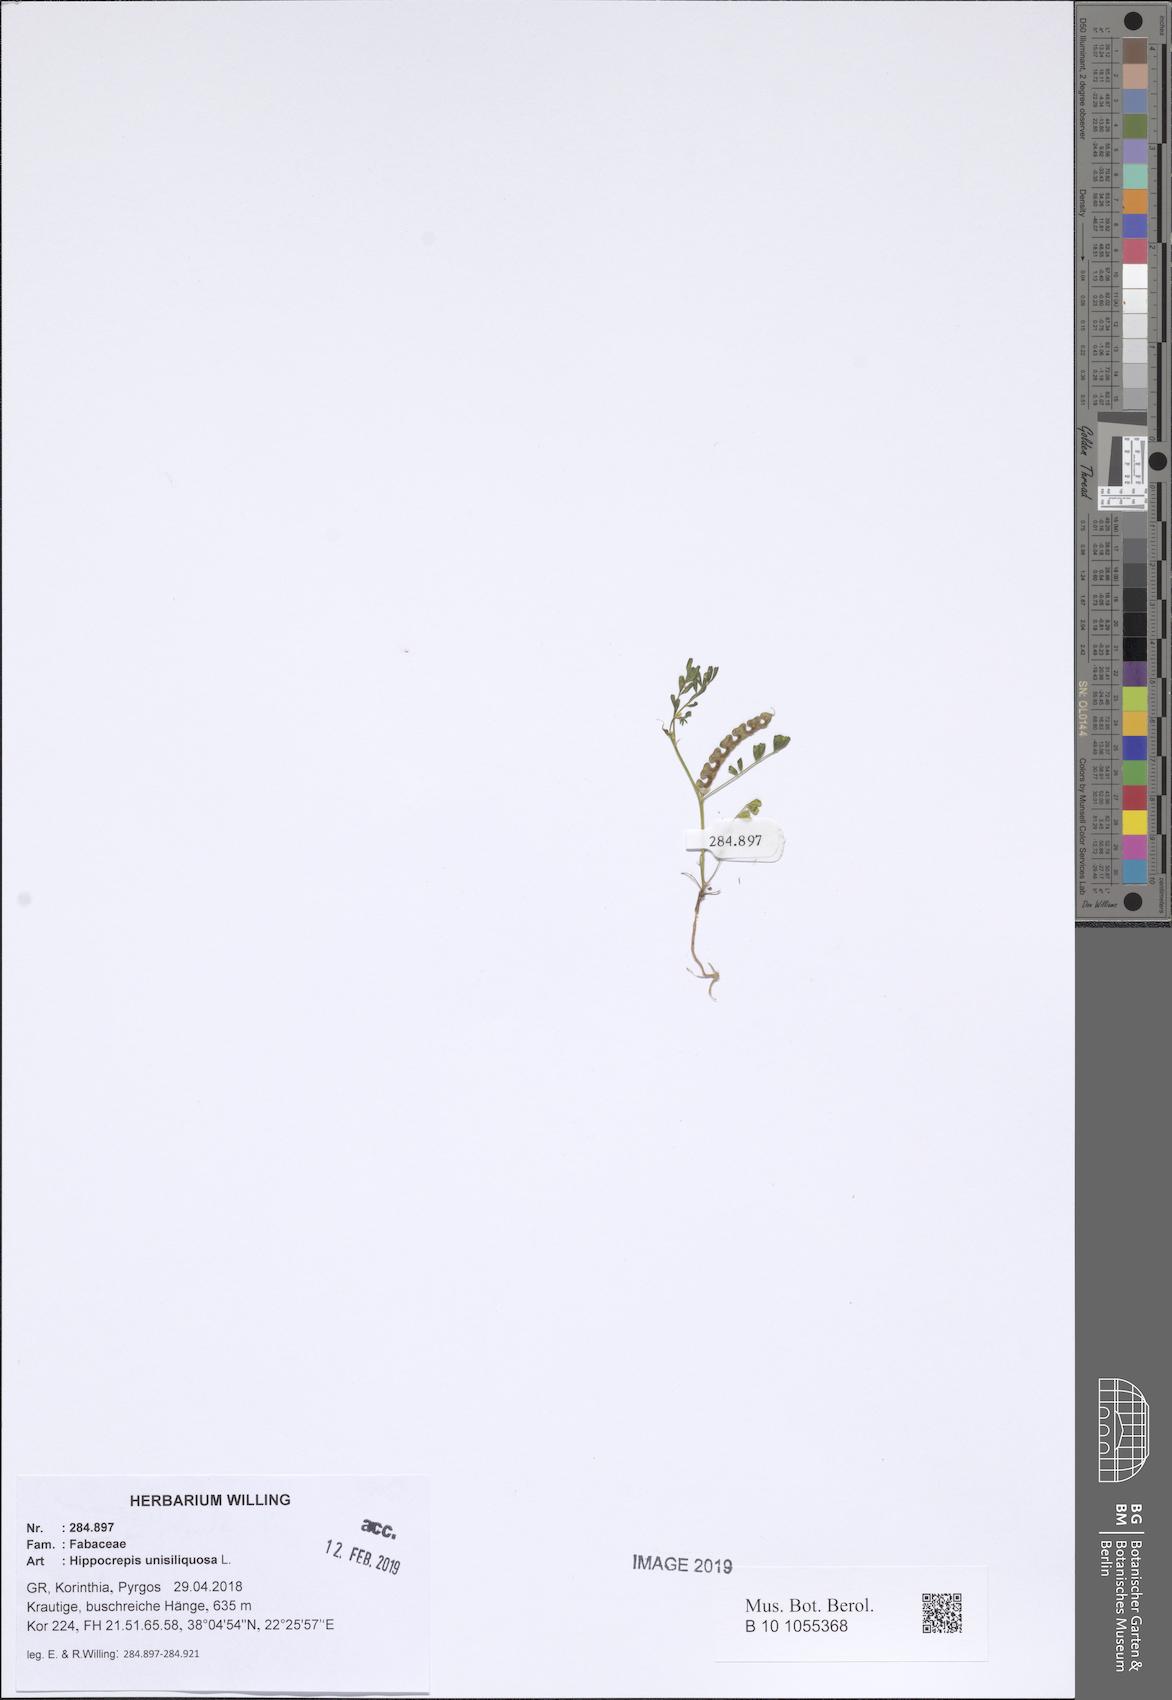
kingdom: Plantae
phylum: Tracheophyta
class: Magnoliopsida
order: Fabales
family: Fabaceae
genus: Hippocrepis
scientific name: Hippocrepis unisiliquosa
